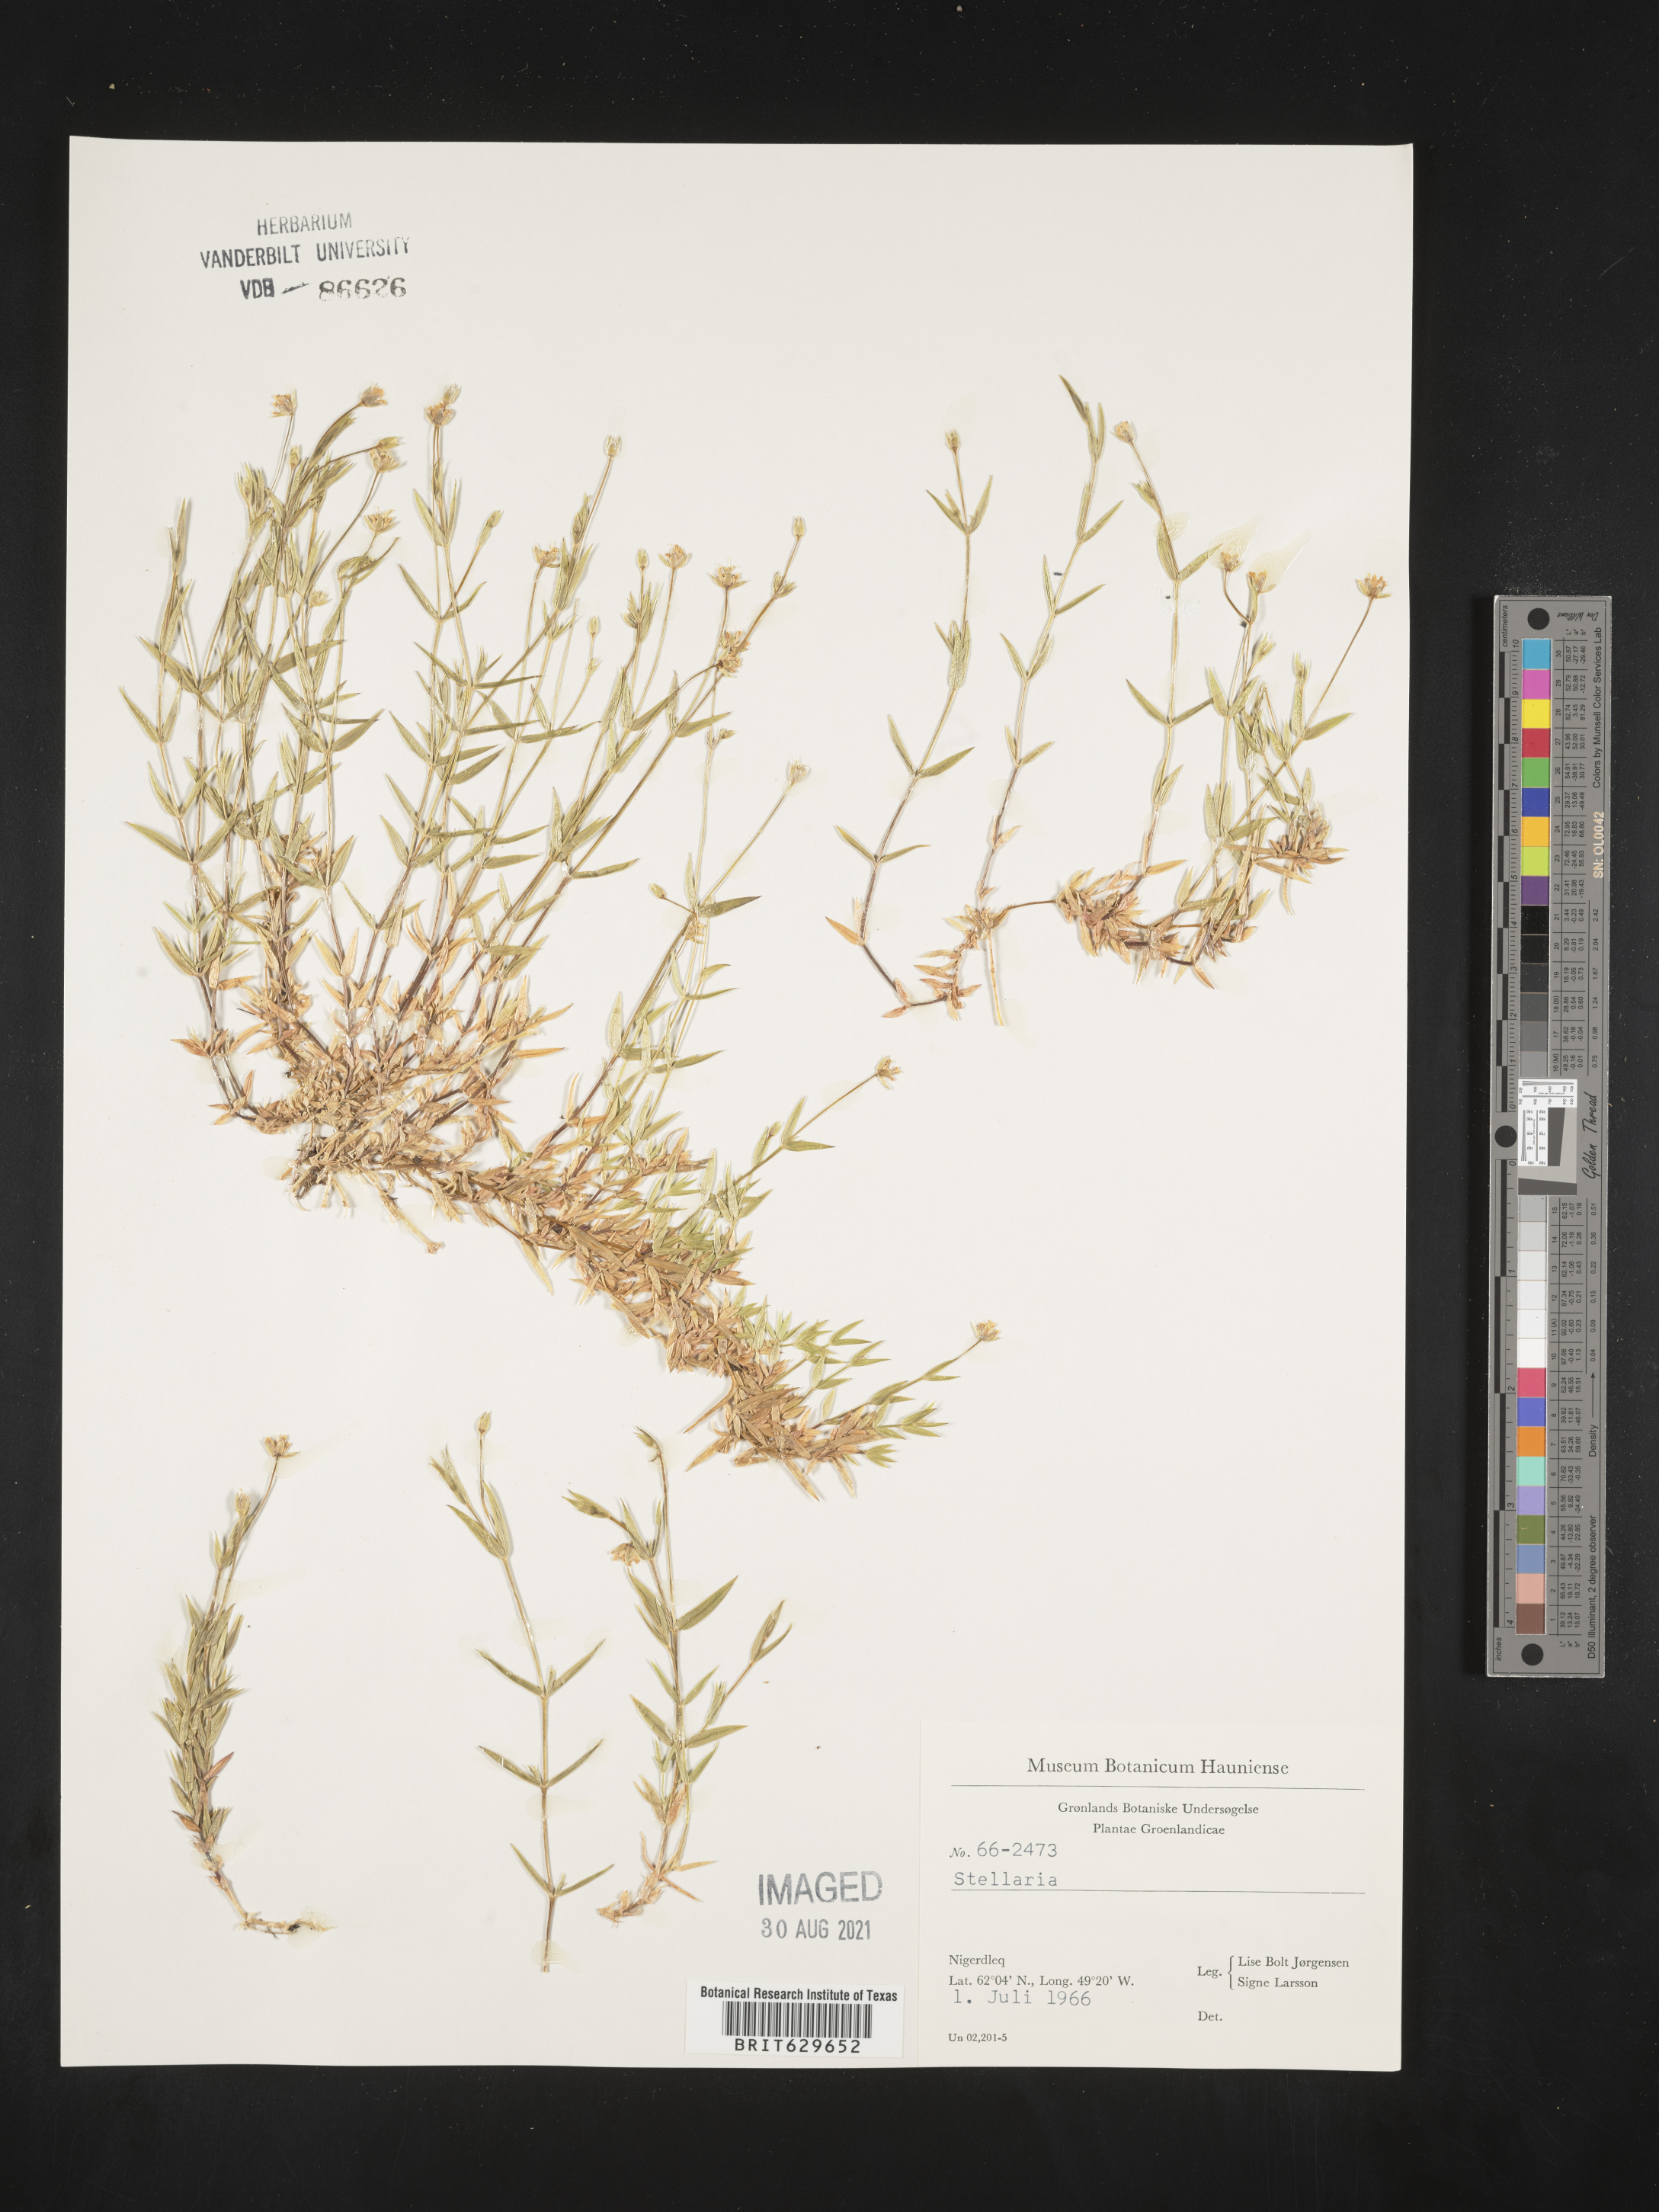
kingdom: Plantae
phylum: Tracheophyta
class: Magnoliopsida
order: Caryophyllales
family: Caryophyllaceae
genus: Stellaria
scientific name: Stellaria
